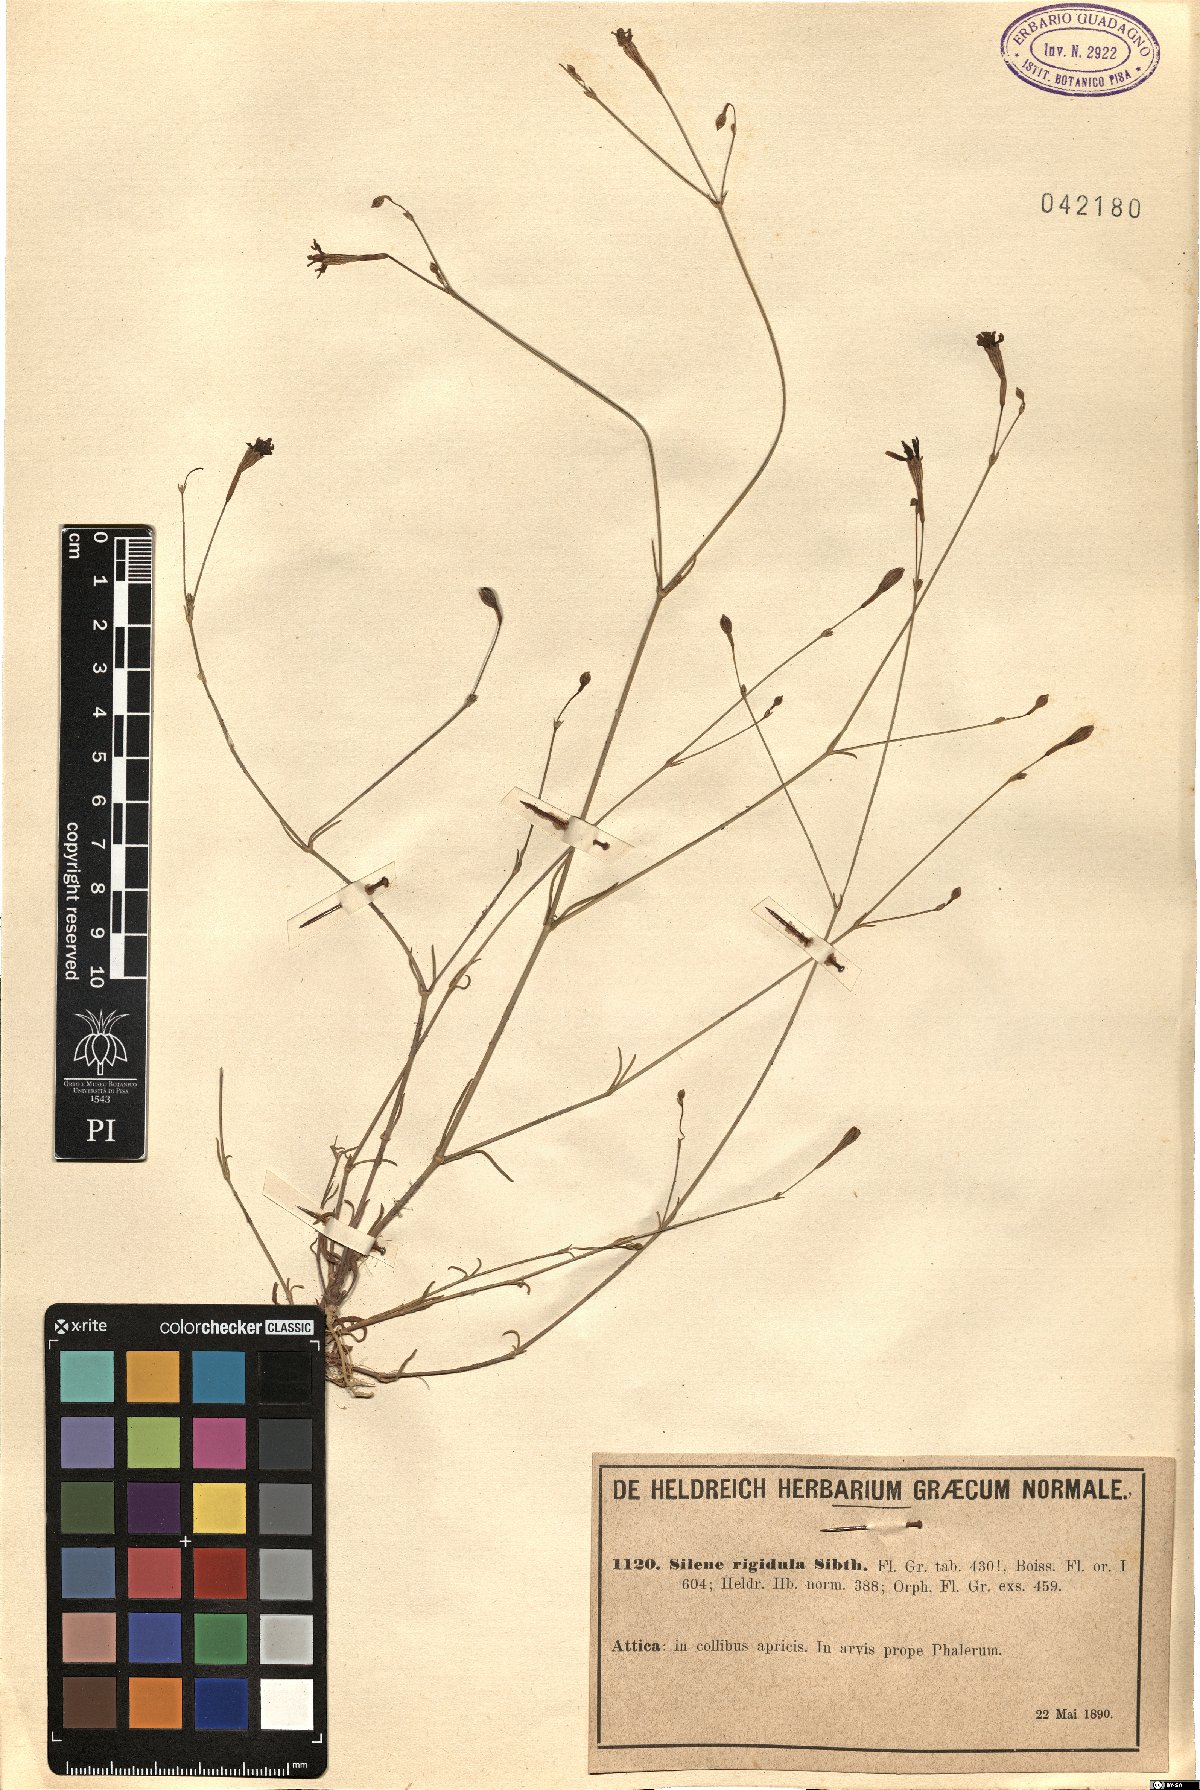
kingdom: Plantae
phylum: Tracheophyta
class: Magnoliopsida
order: Caryophyllales
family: Caryophyllaceae
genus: Silene
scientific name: Silene corinthiaca
